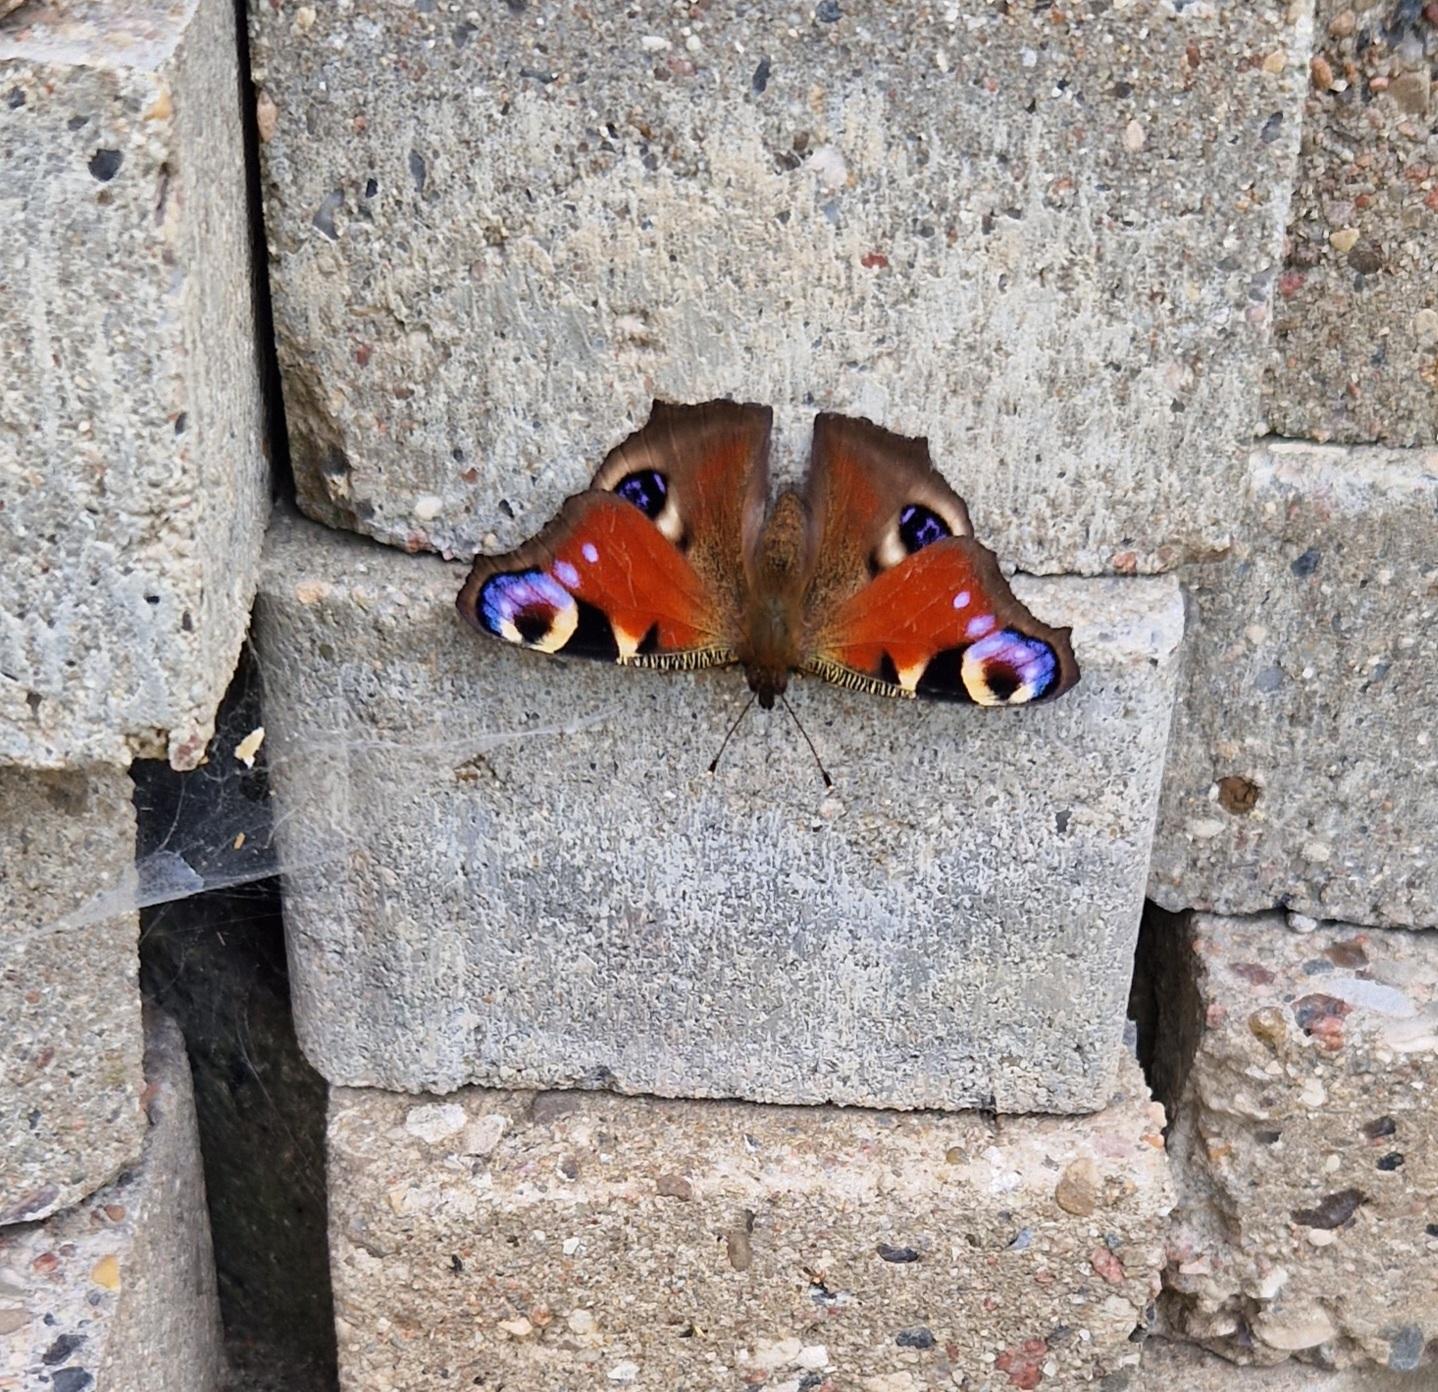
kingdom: Animalia
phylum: Arthropoda
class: Insecta
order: Lepidoptera
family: Nymphalidae
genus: Aglais
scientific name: Aglais io
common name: Dagpåfugleøje
